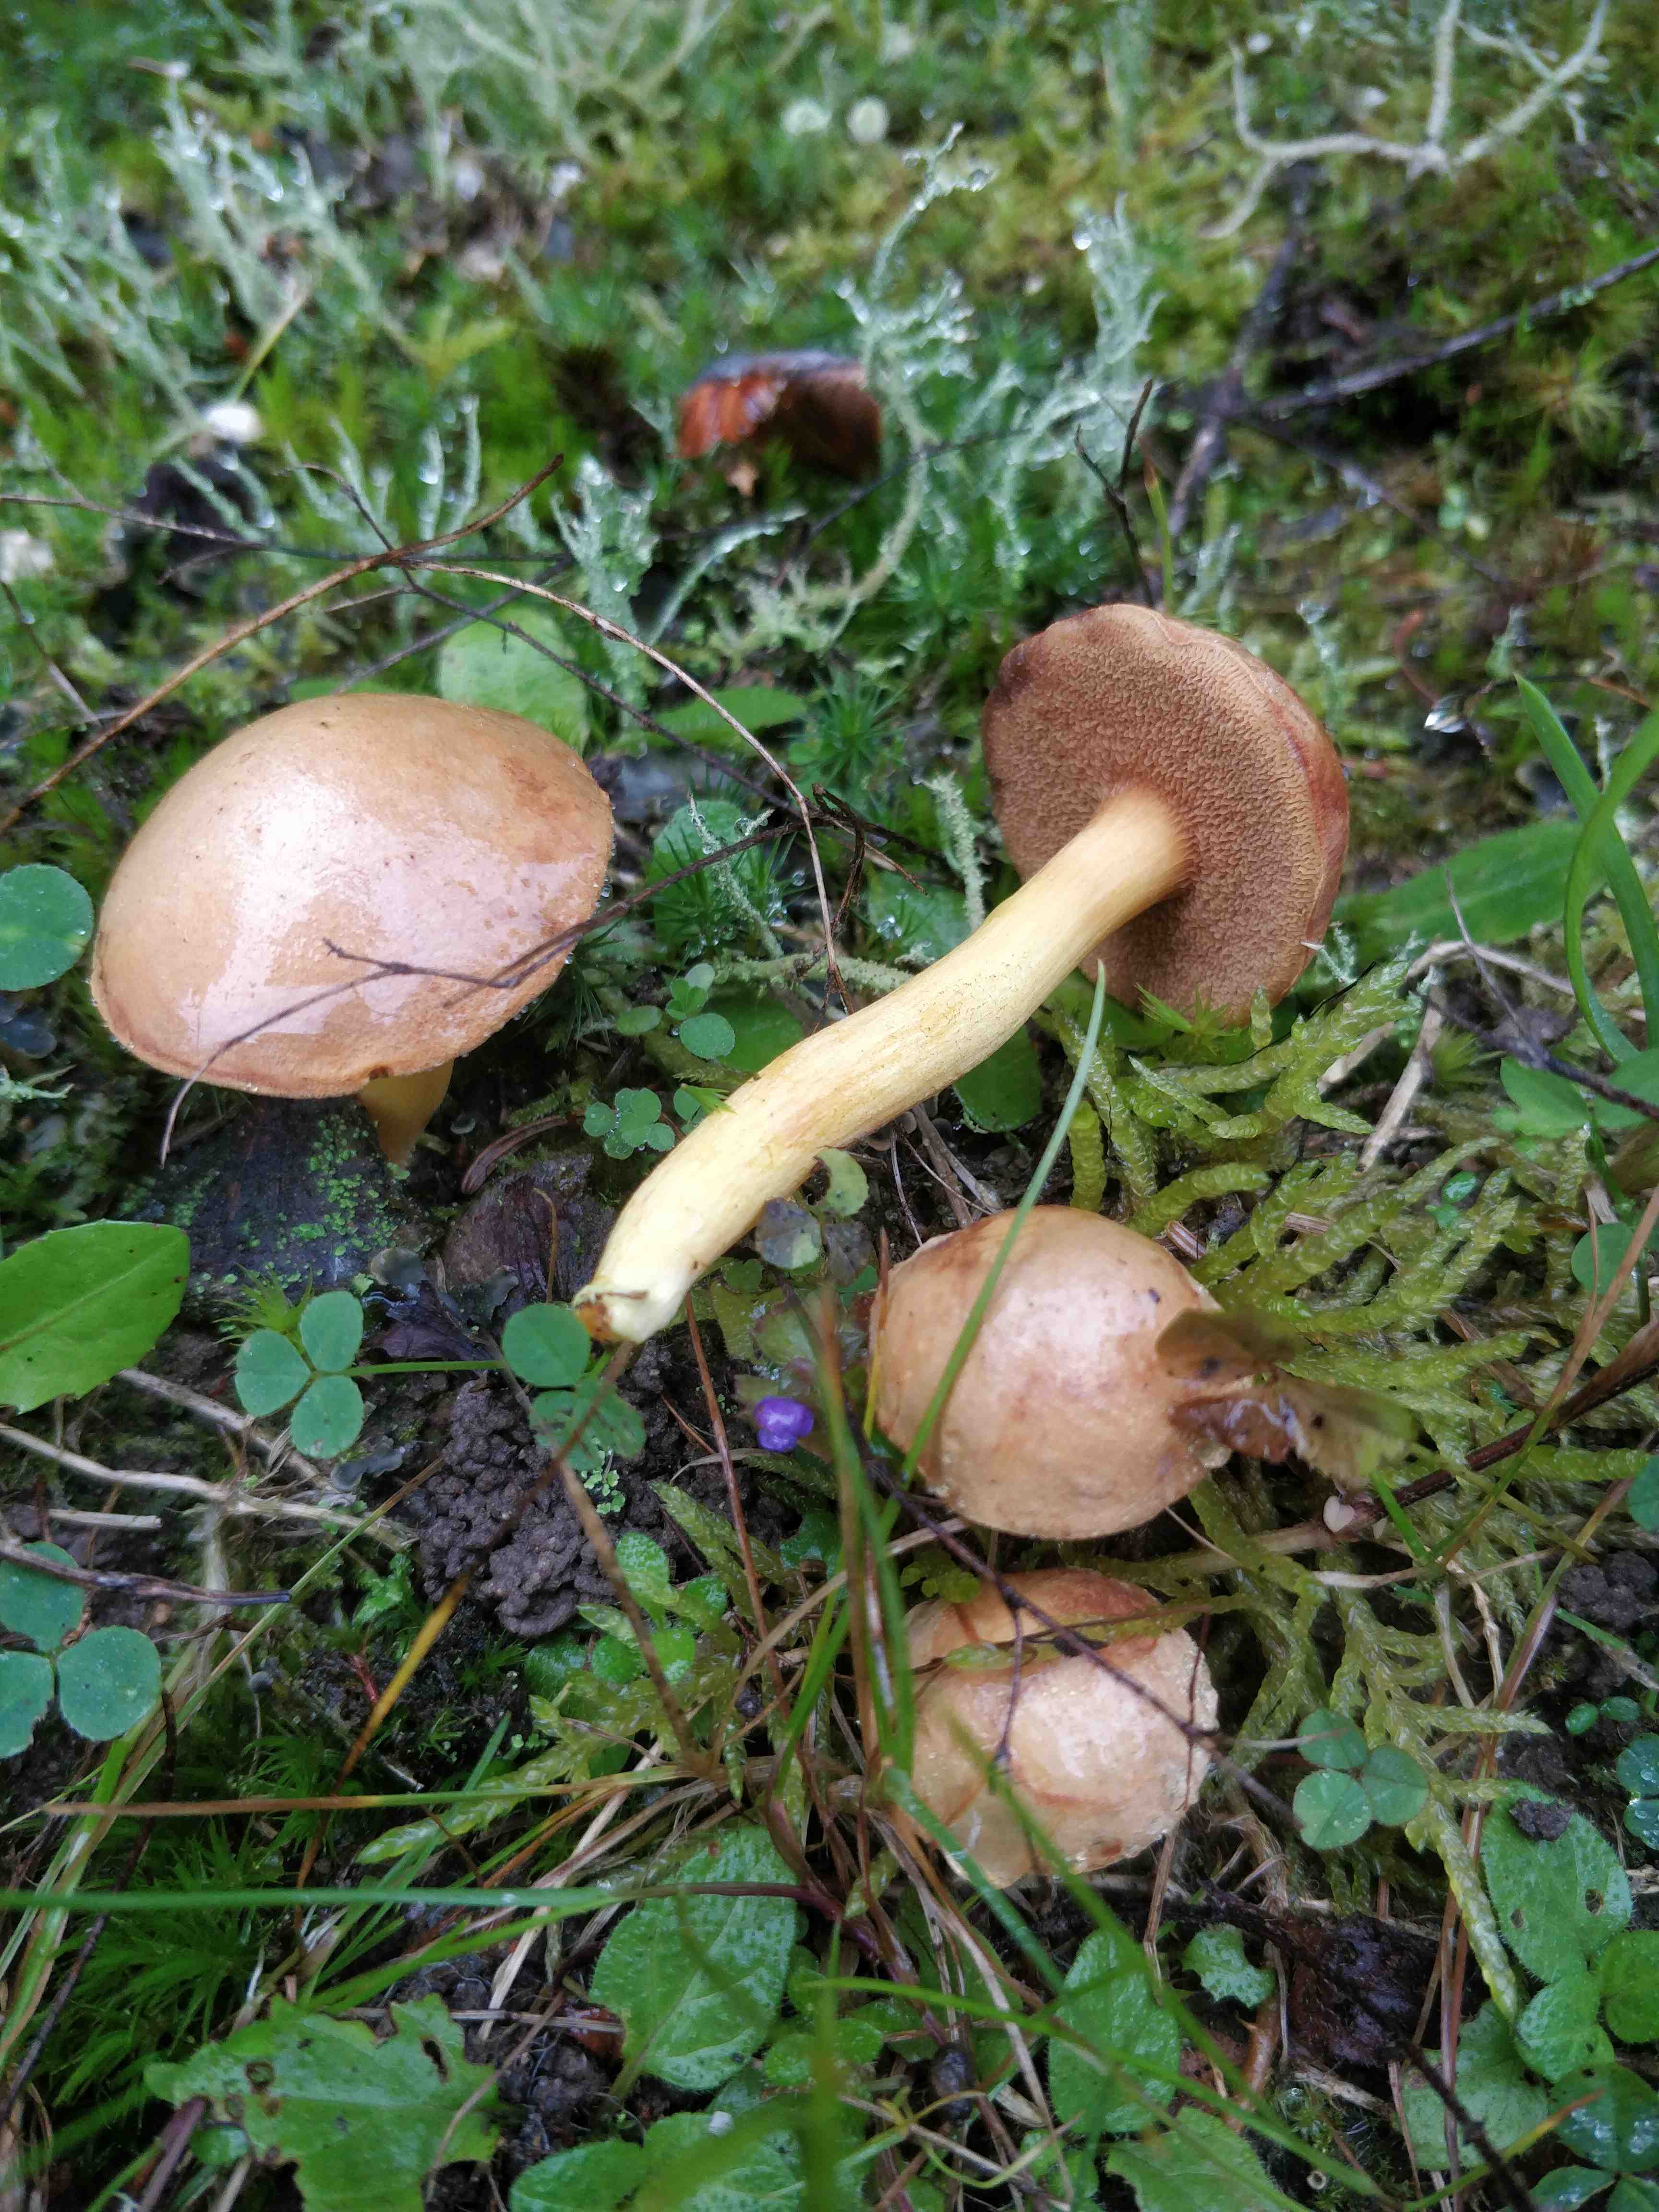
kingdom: Fungi
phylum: Basidiomycota
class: Agaricomycetes
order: Boletales
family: Boletaceae
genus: Chalciporus
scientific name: Chalciporus piperatus
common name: peberrørhat
